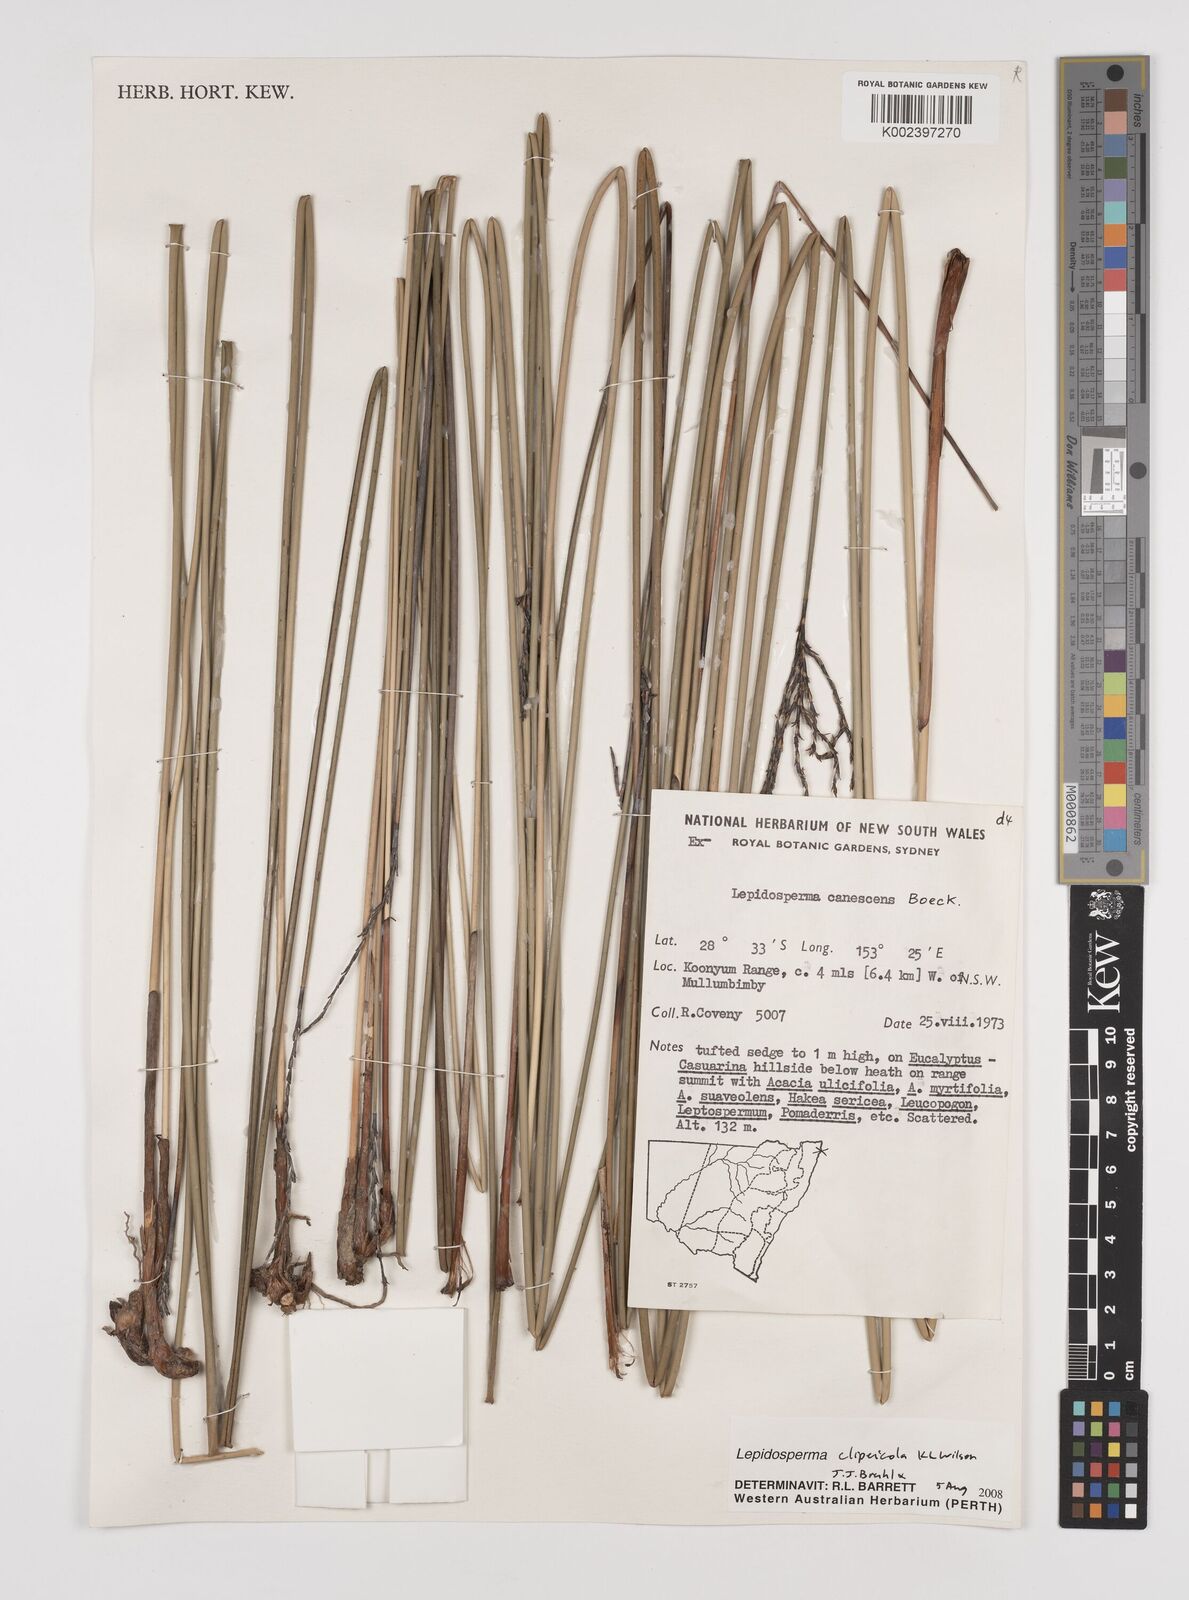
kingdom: Plantae
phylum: Tracheophyta
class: Liliopsida
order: Poales
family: Cyperaceae
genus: Lepidosperma
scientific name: Lepidosperma clipeicola
